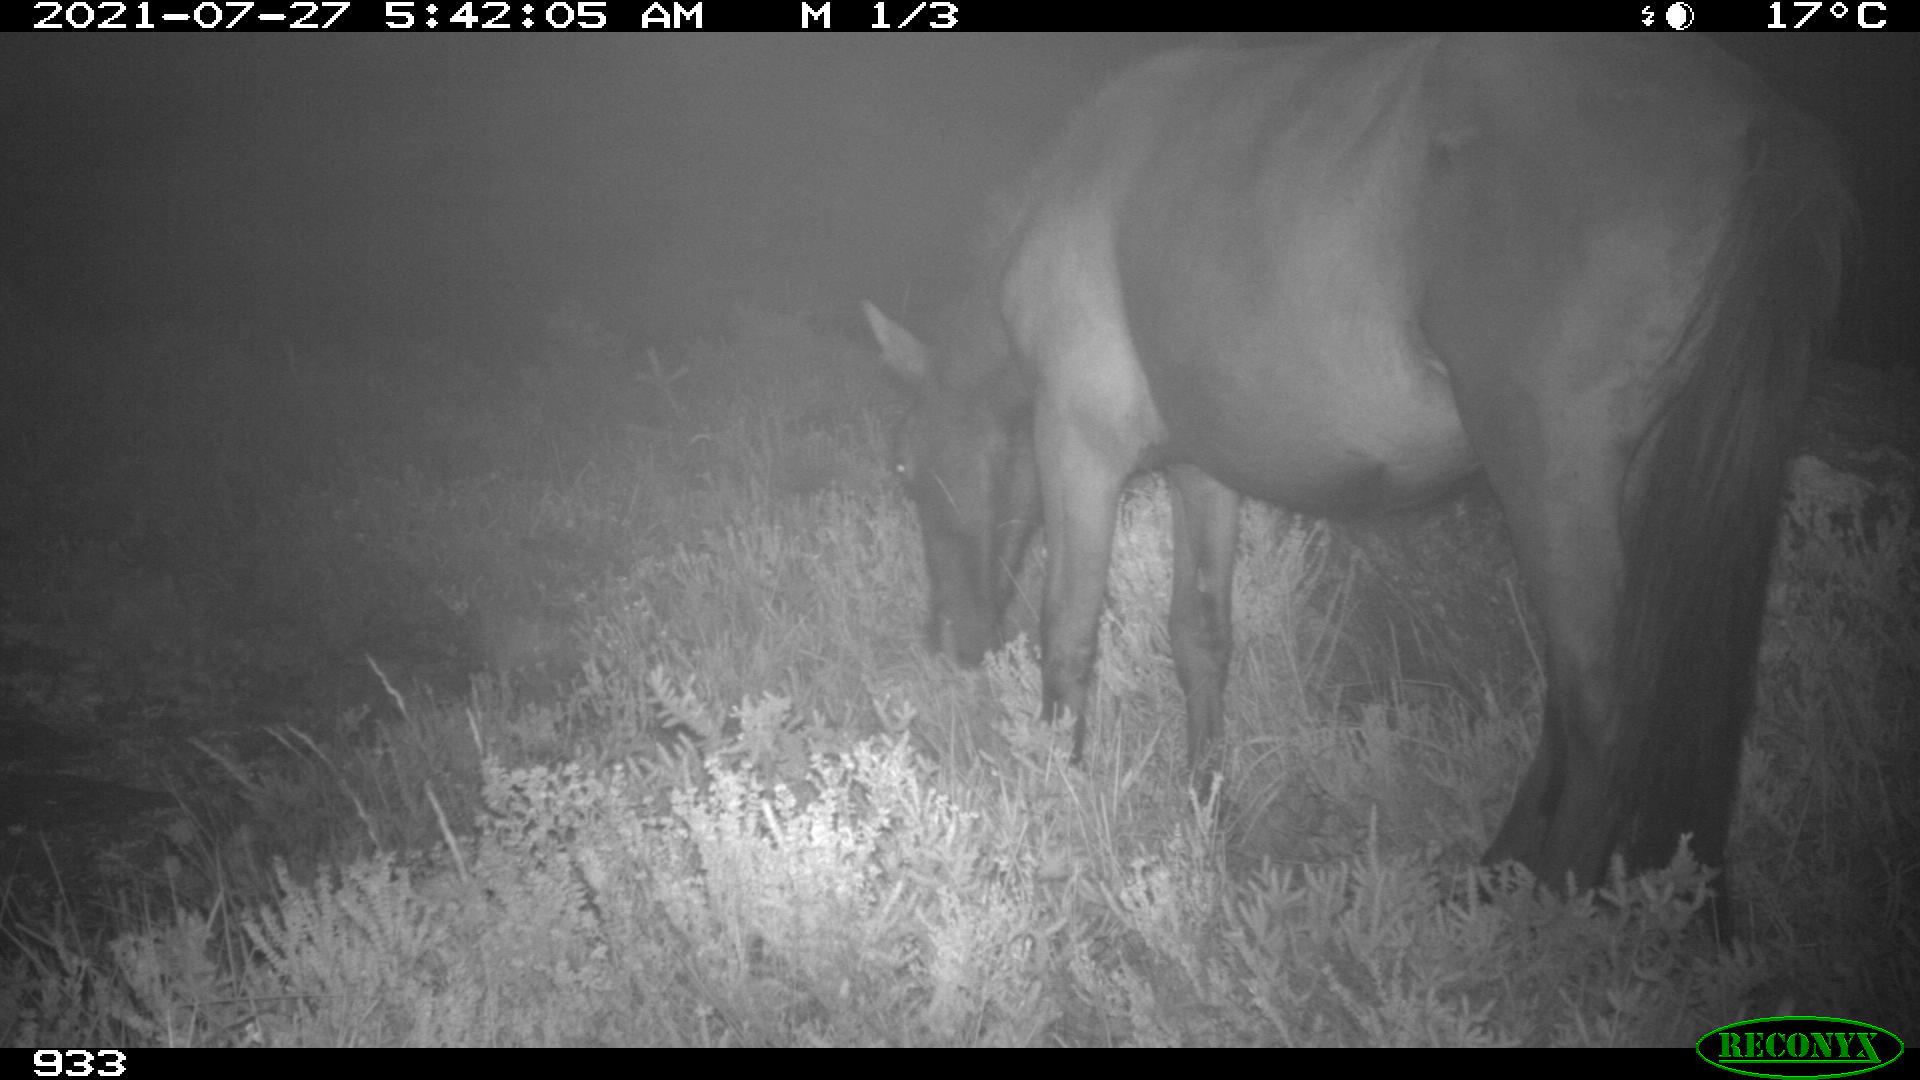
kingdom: Animalia
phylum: Chordata
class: Mammalia
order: Perissodactyla
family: Equidae
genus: Equus
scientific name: Equus caballus
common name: Horse
